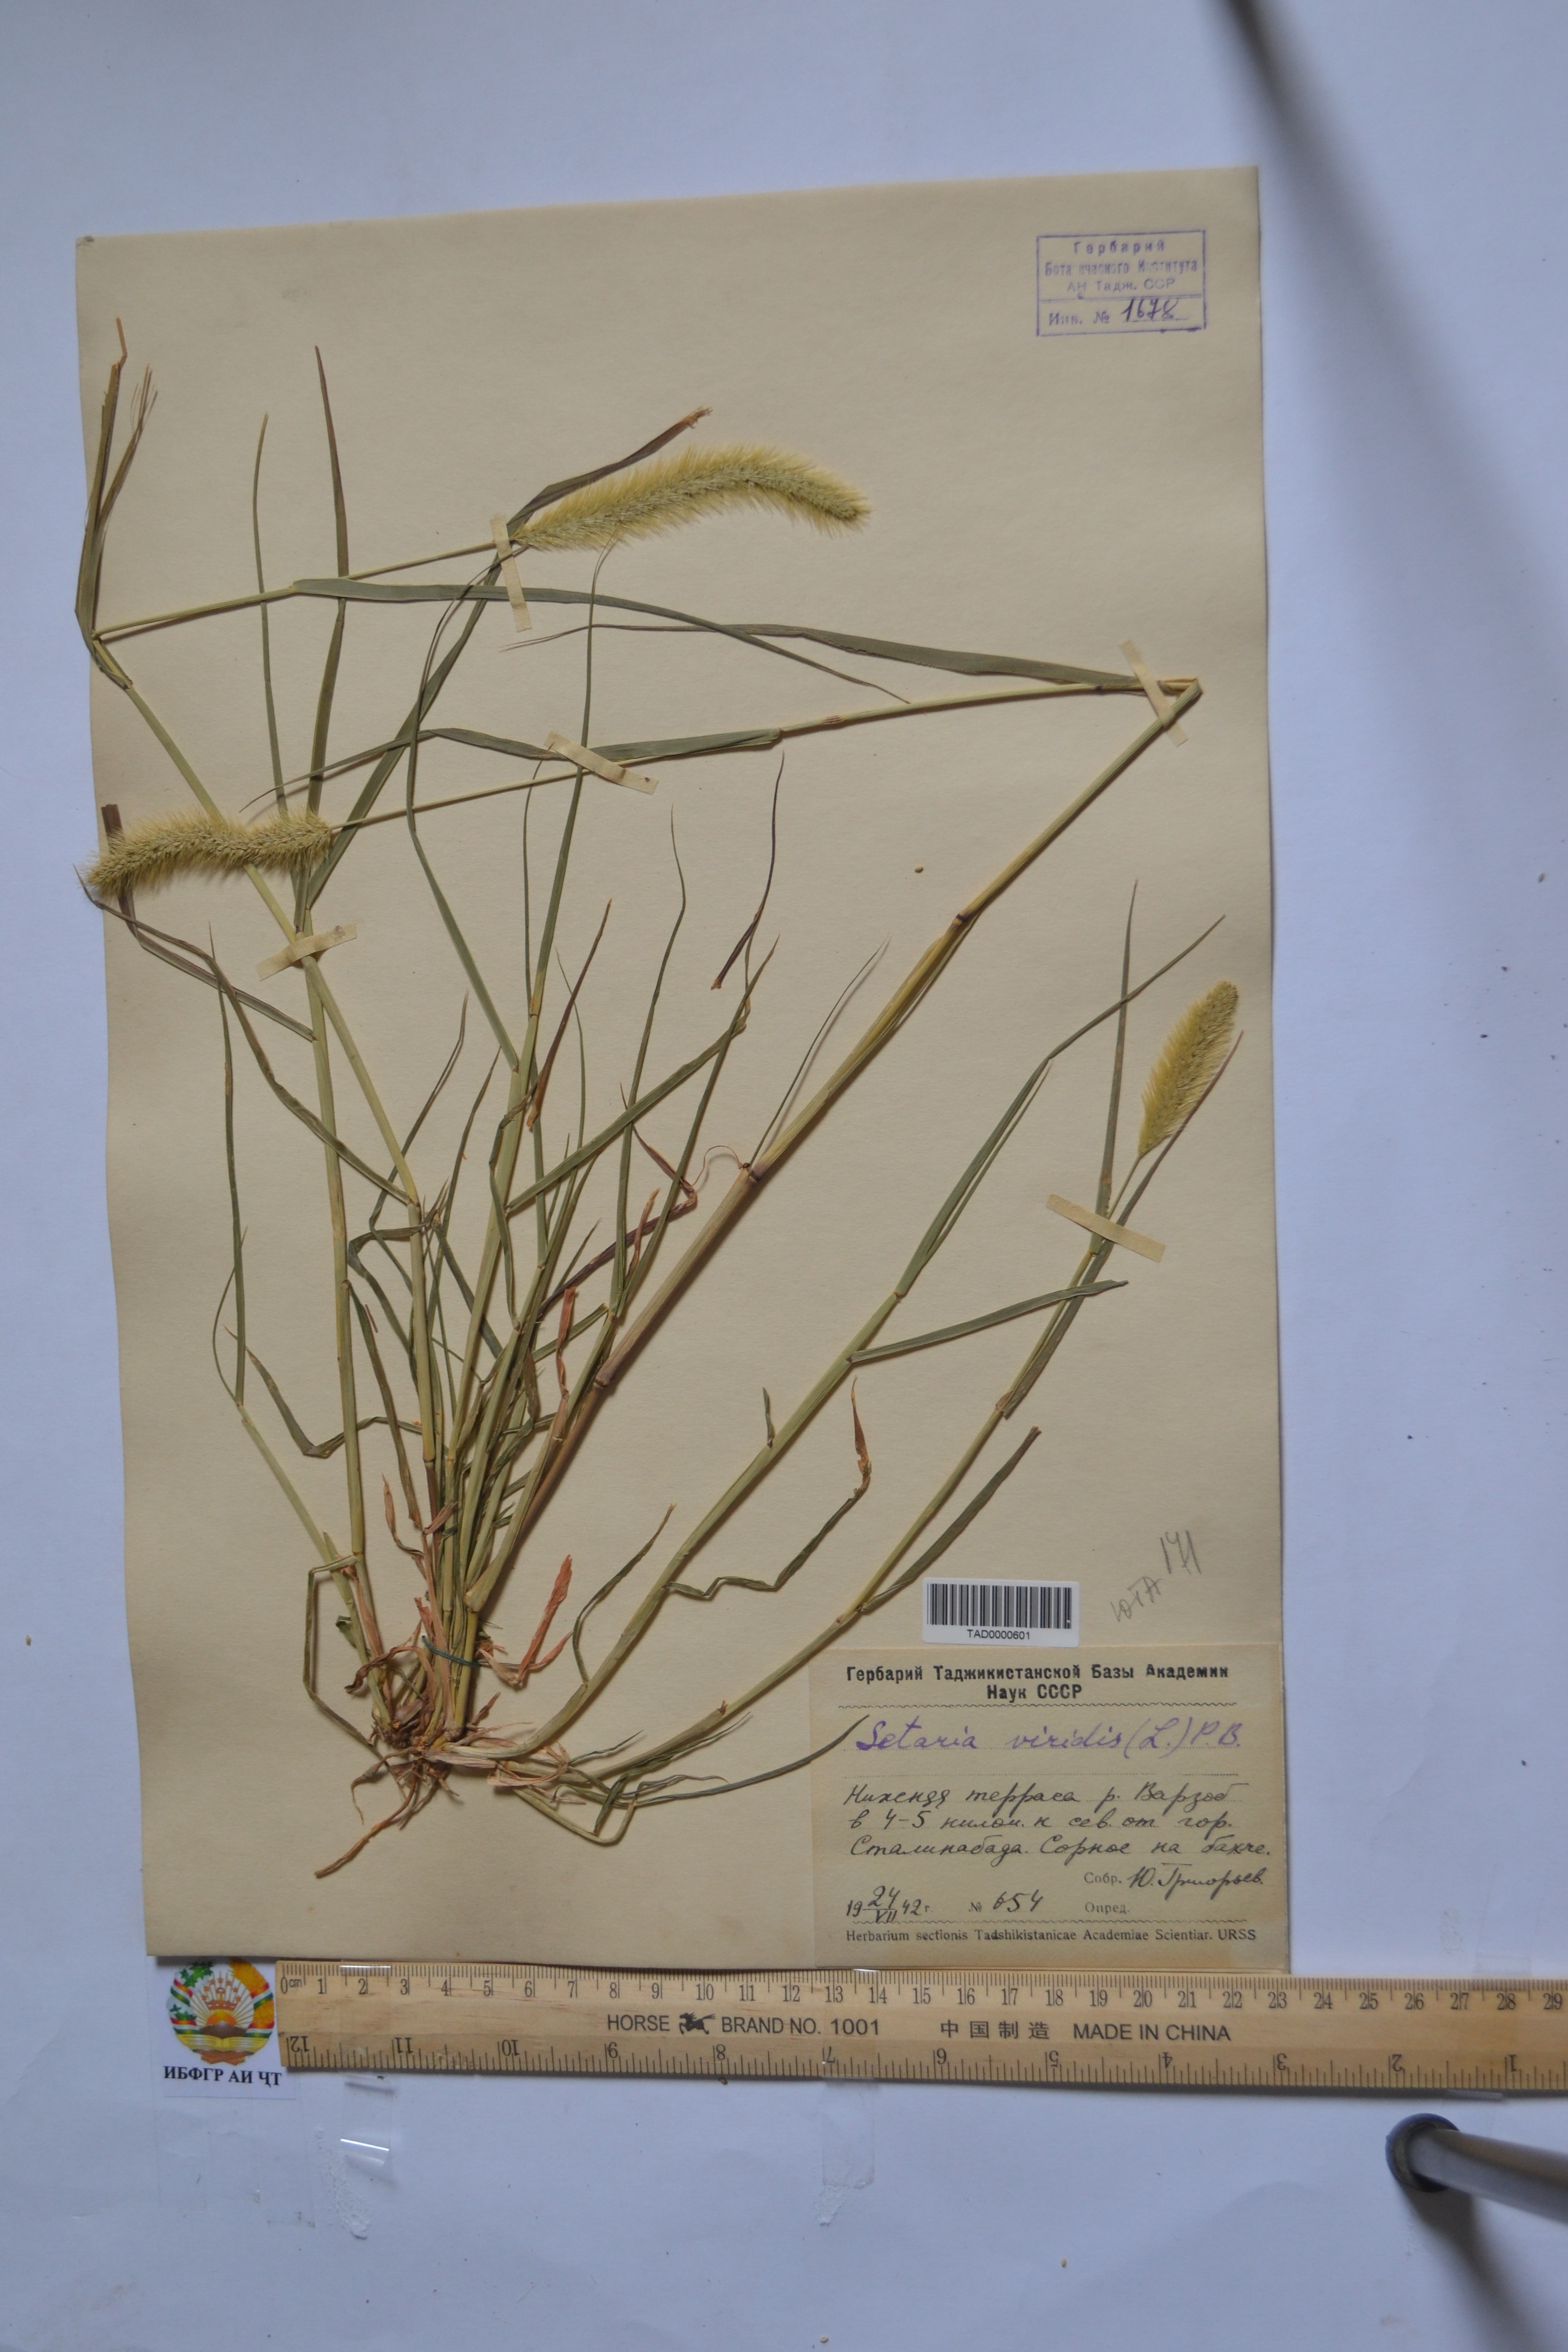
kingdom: Plantae
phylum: Tracheophyta
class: Liliopsida
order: Poales
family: Poaceae
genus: Setaria
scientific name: Setaria viridis
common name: Green bristlegrass
